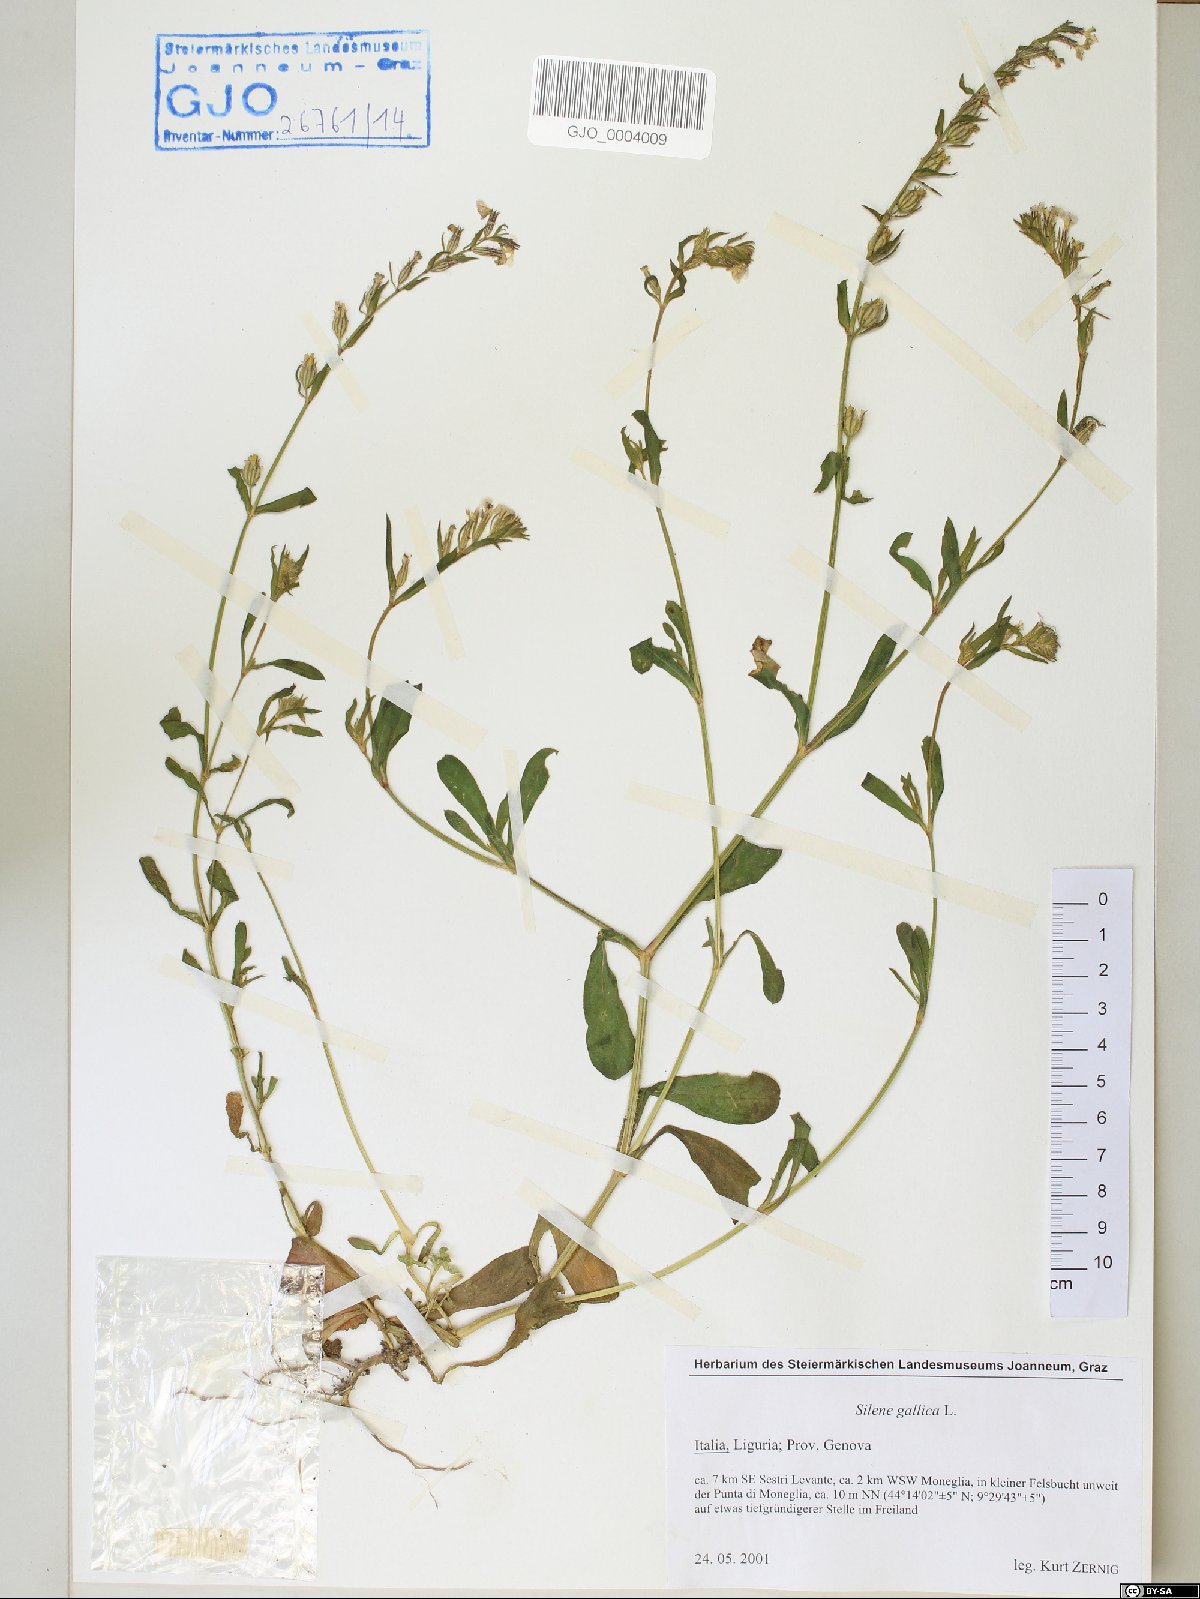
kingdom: Plantae
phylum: Tracheophyta
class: Magnoliopsida
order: Caryophyllales
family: Caryophyllaceae
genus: Silene
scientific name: Silene gallica
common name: Small-flowered catchfly
